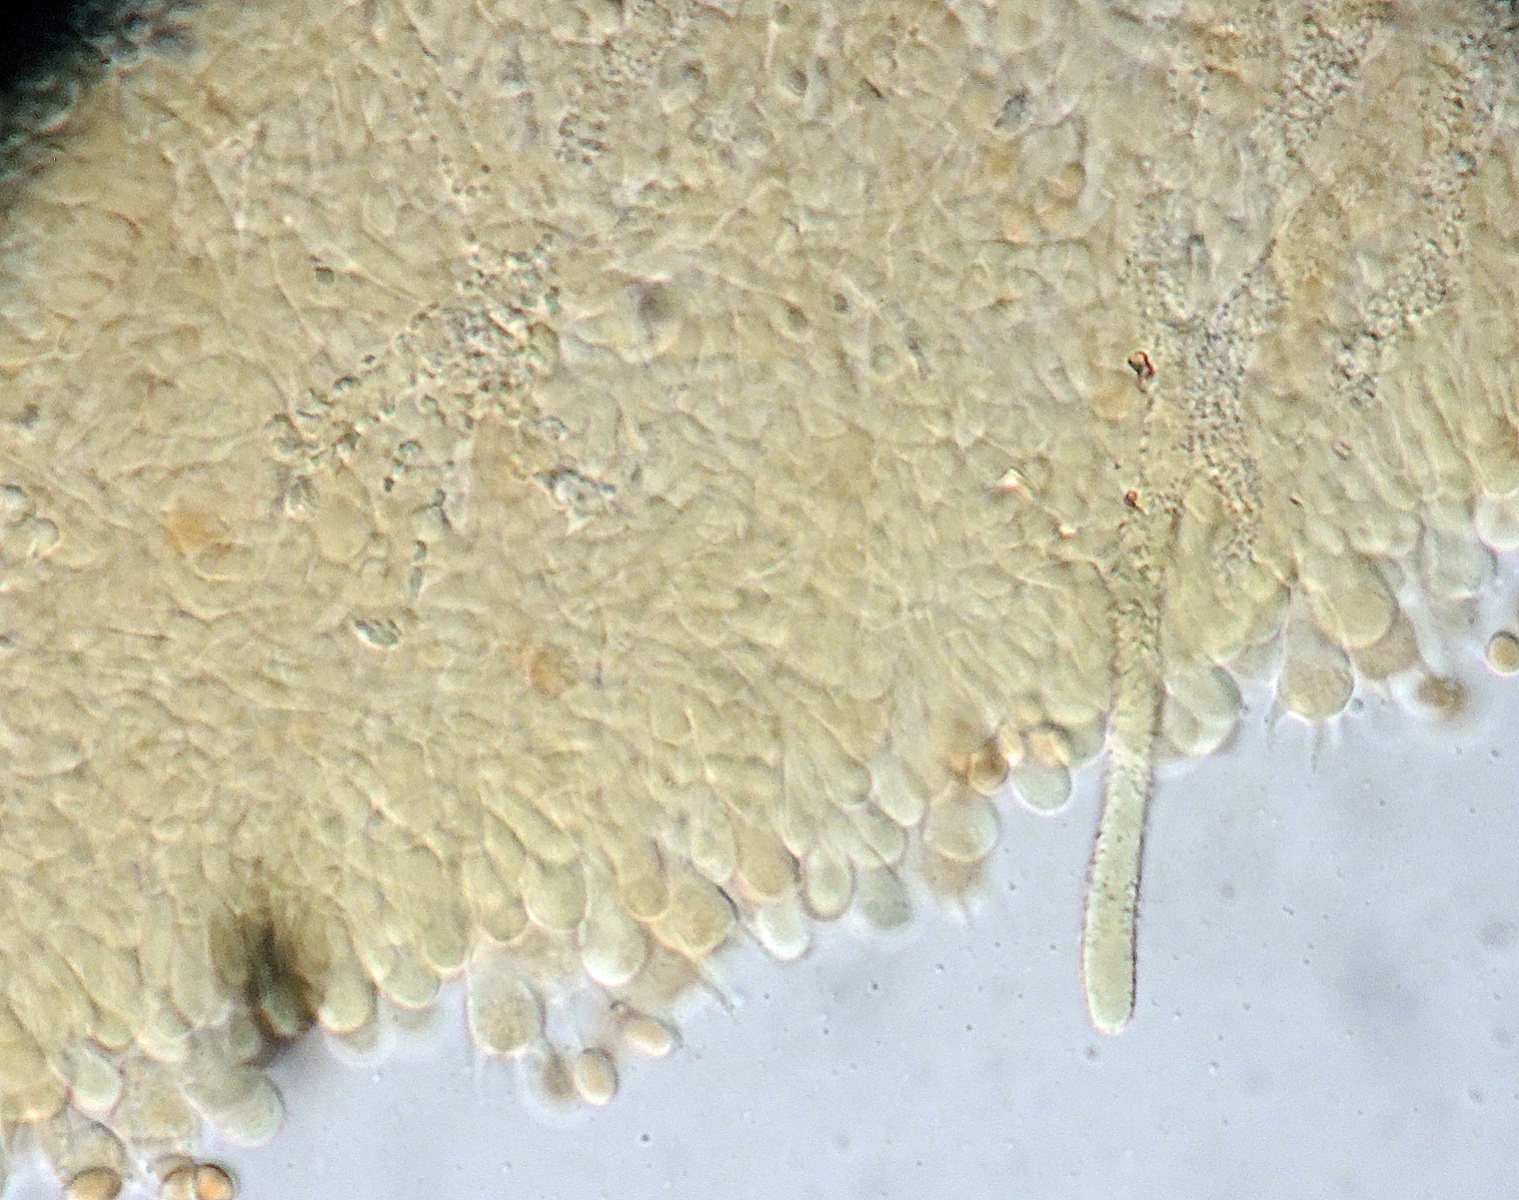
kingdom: Fungi
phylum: Basidiomycota
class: Agaricomycetes
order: Corticiales
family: Corticiaceae
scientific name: Corticiaceae
